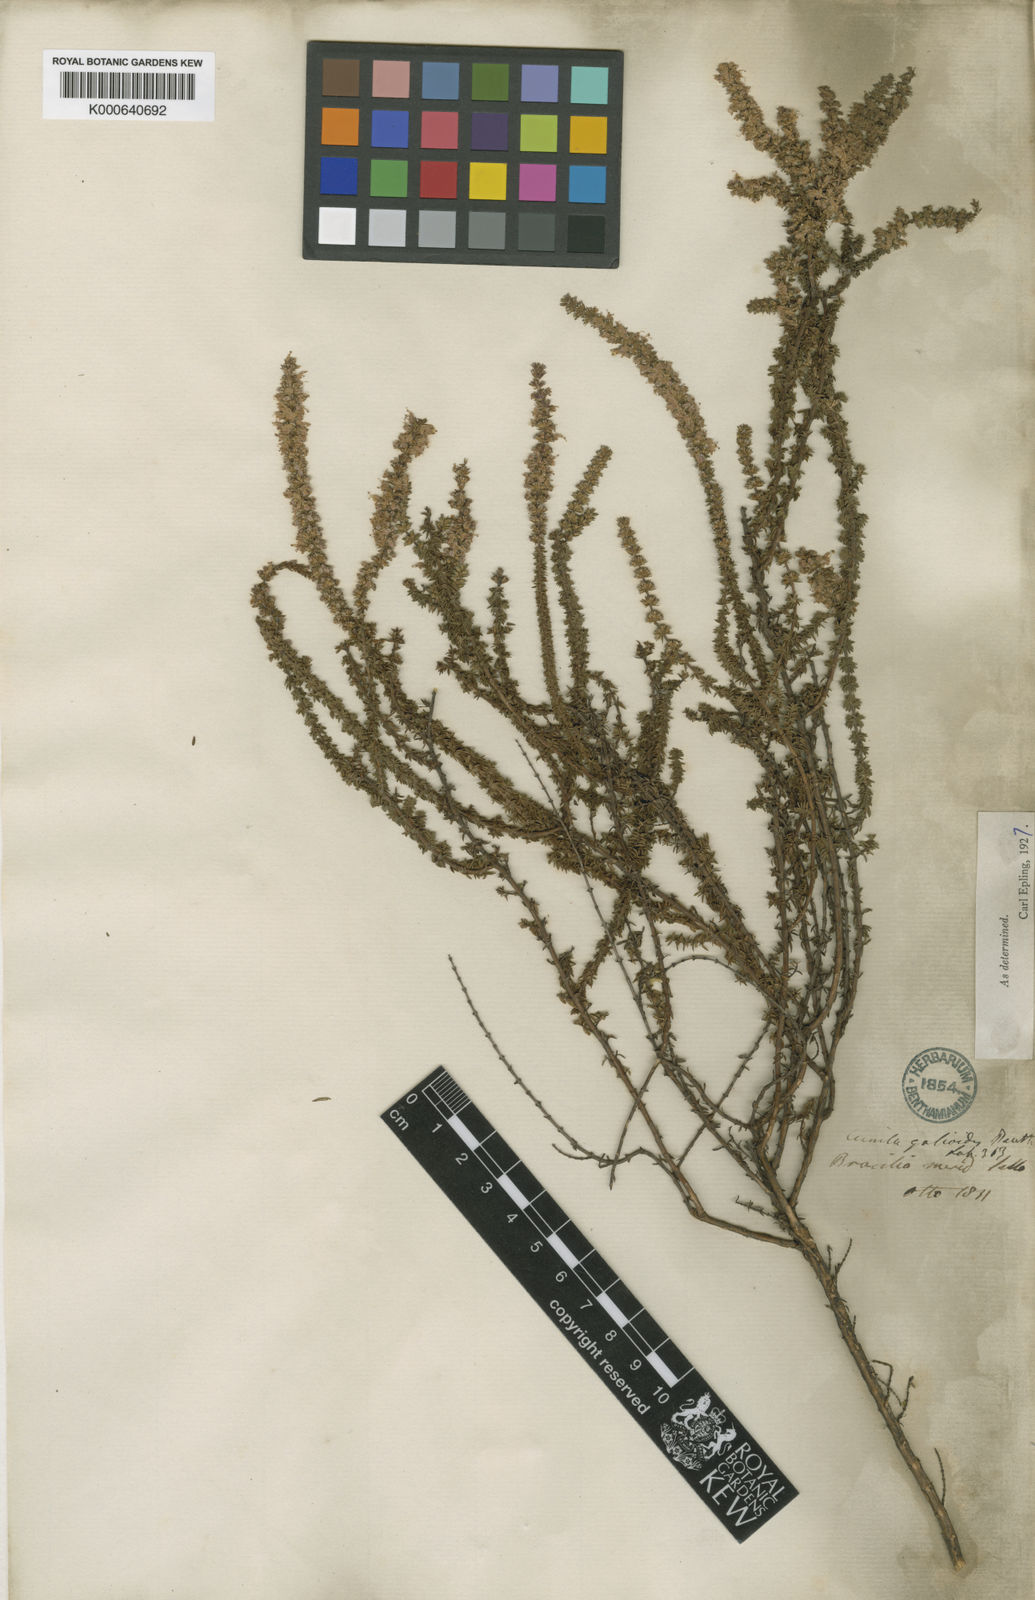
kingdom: Plantae
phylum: Tracheophyta
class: Magnoliopsida
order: Lamiales
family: Lamiaceae
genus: Cunila
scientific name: Cunila galioides
